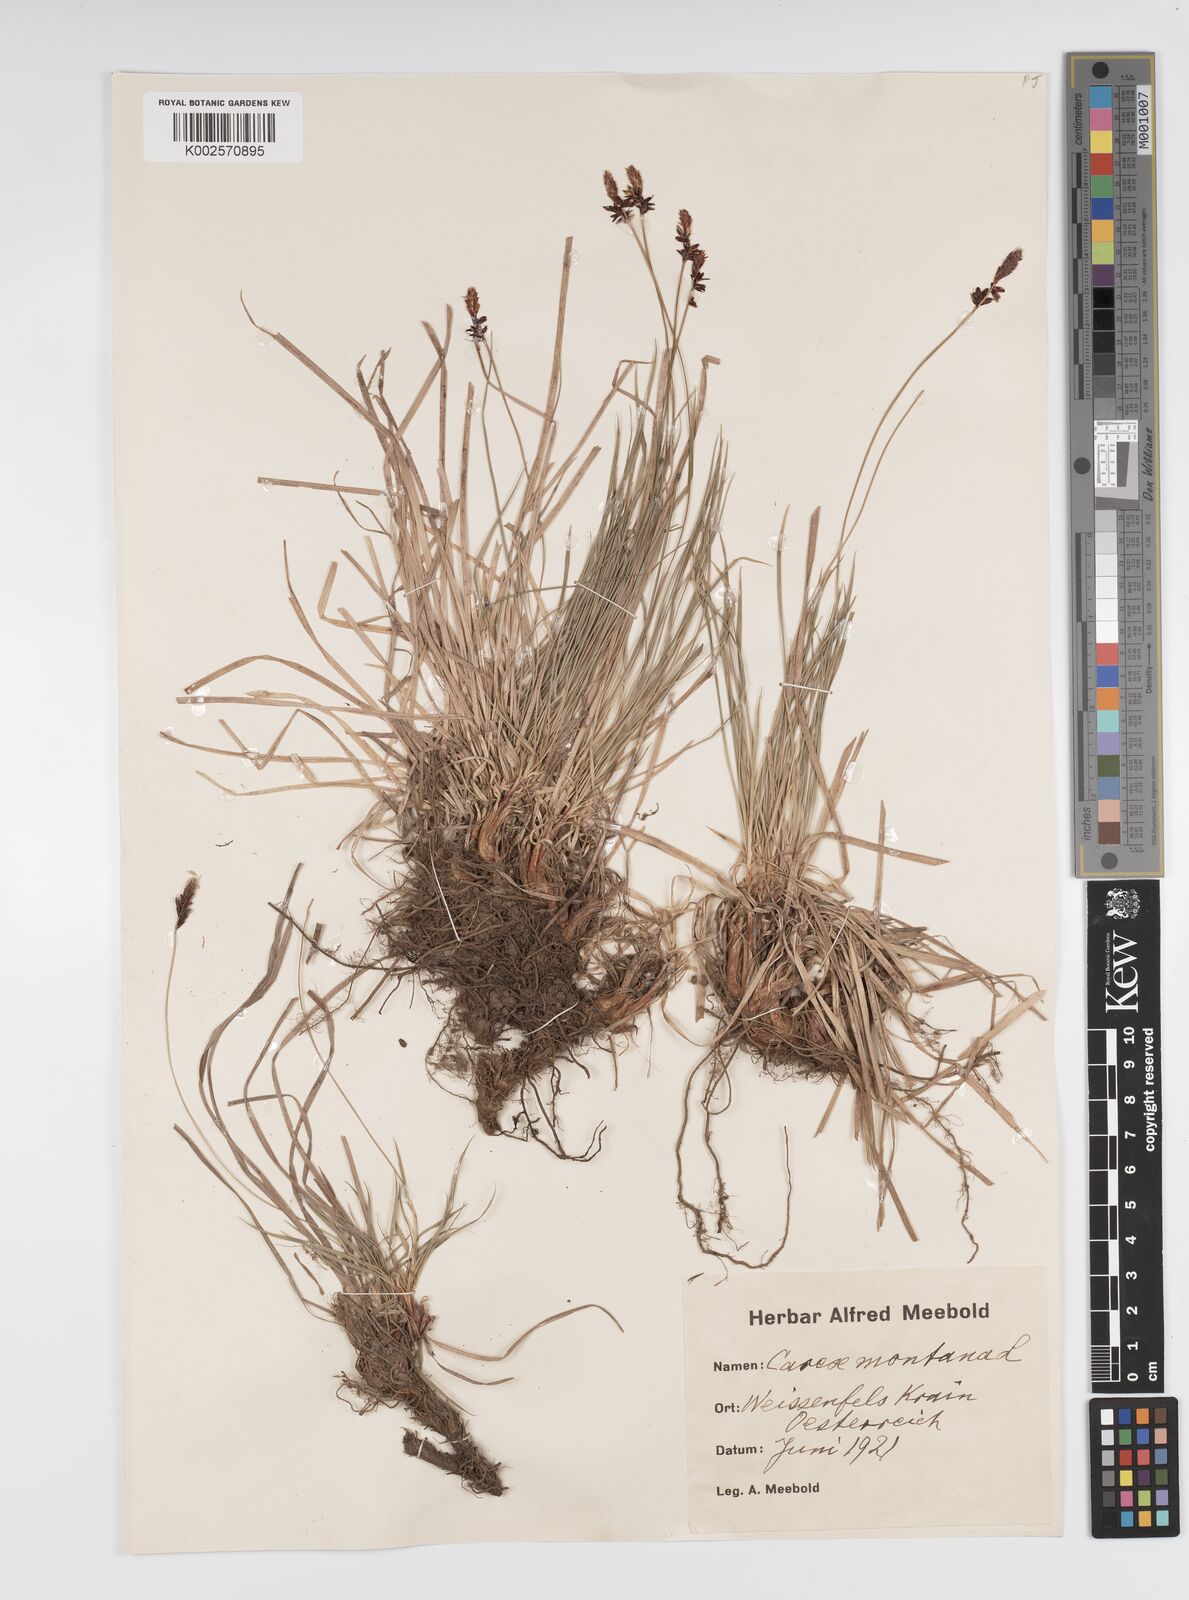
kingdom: Plantae
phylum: Tracheophyta
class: Liliopsida
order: Poales
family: Cyperaceae
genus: Carex
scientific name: Carex montana
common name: Soft-leaved sedge
